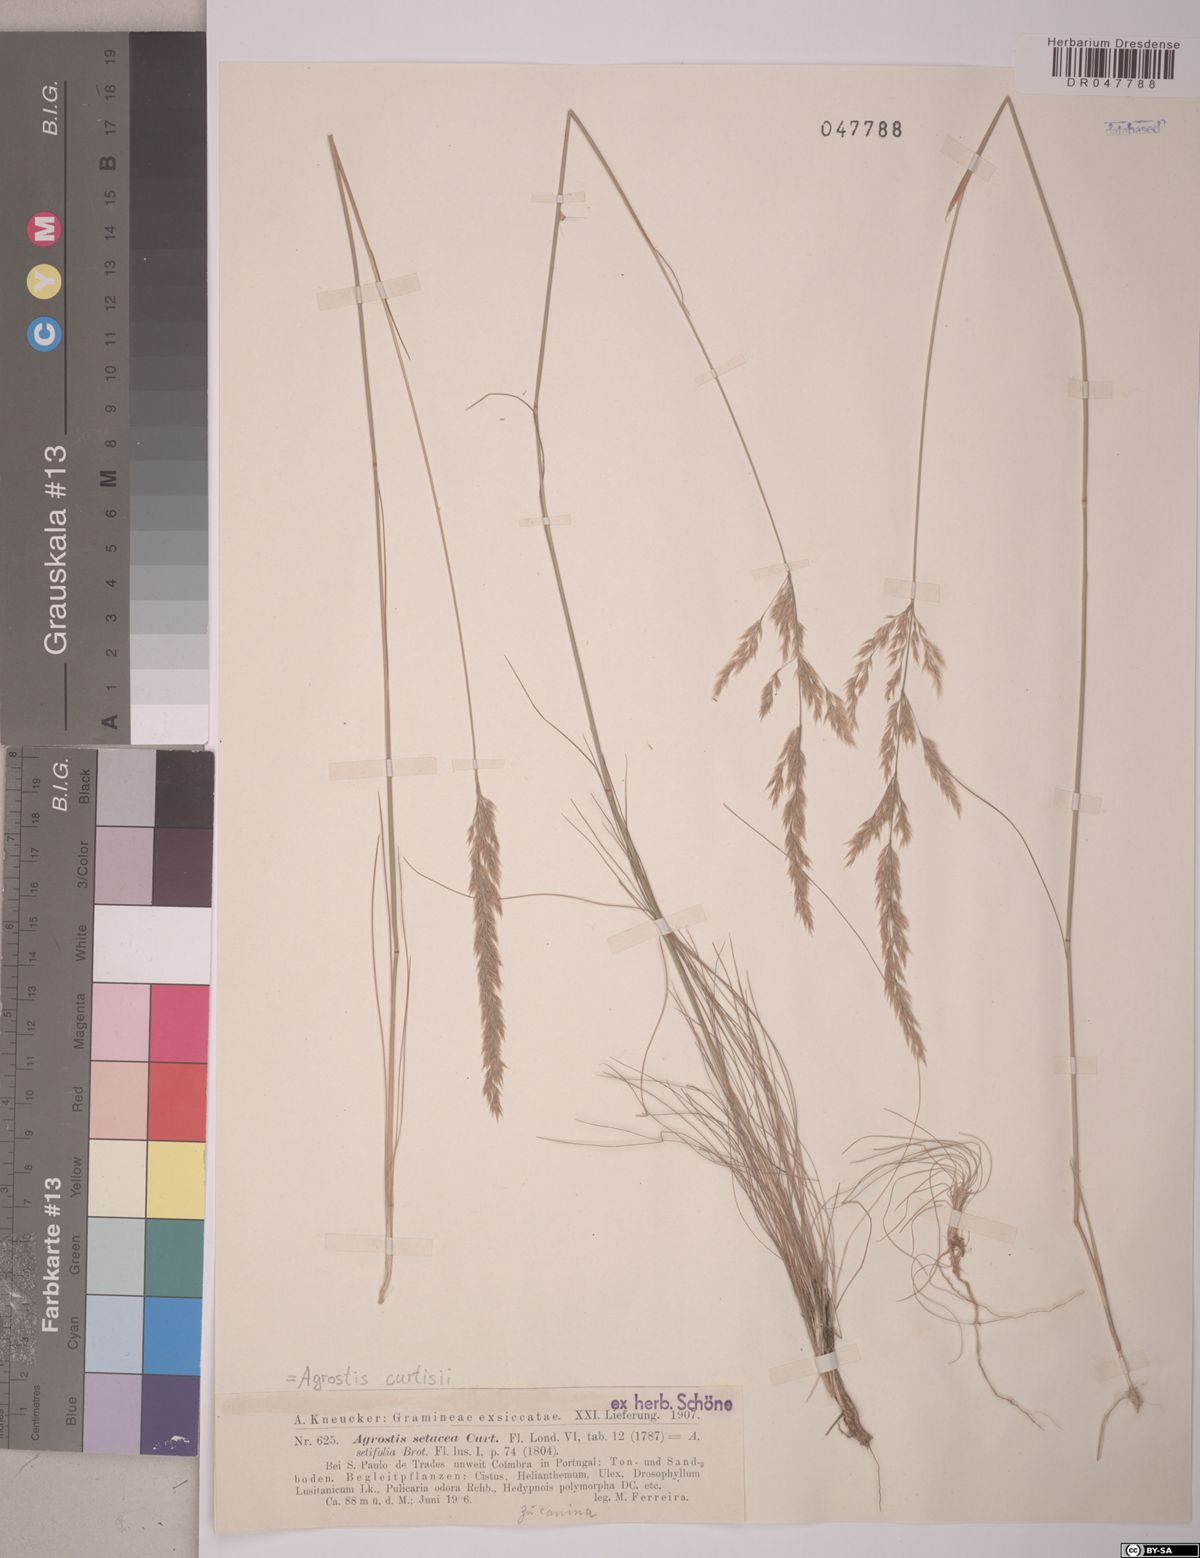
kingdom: Plantae
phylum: Tracheophyta
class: Liliopsida
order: Poales
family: Poaceae
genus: Alpagrostis
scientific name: Alpagrostis setacea
